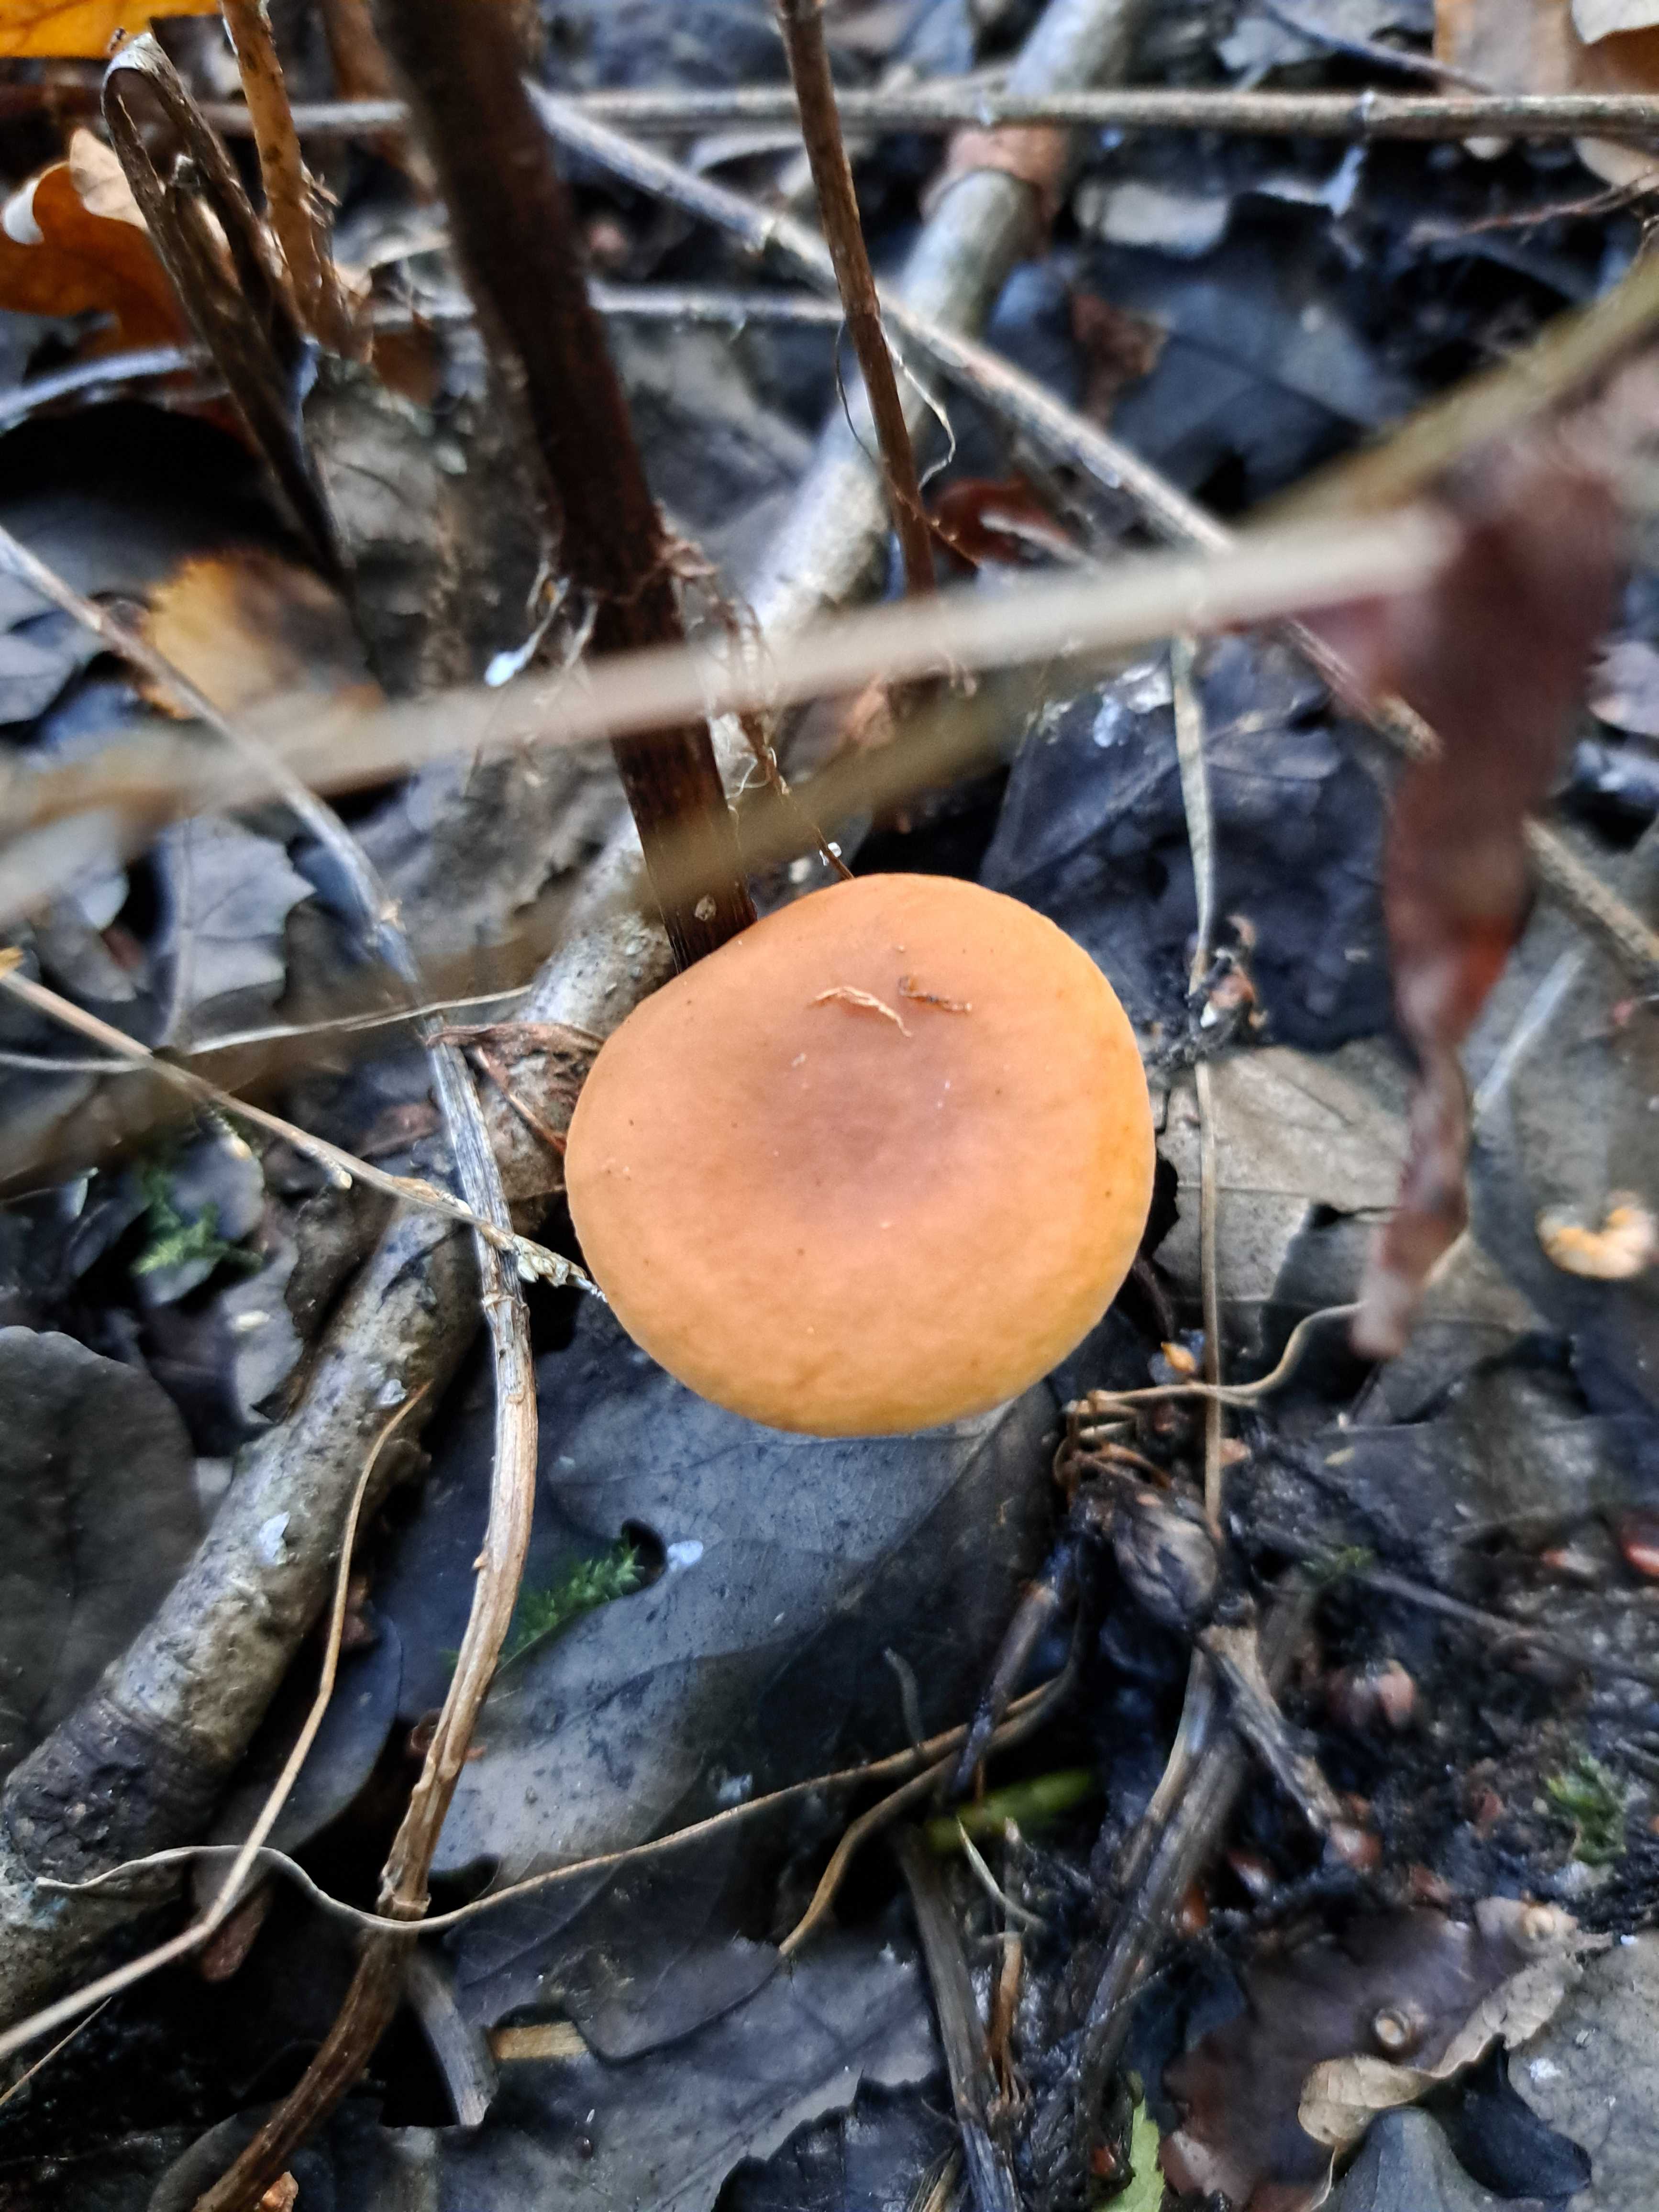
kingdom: Fungi
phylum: Basidiomycota
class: Agaricomycetes
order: Russulales
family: Russulaceae
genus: Lactarius
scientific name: Lactarius
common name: mælkehat
